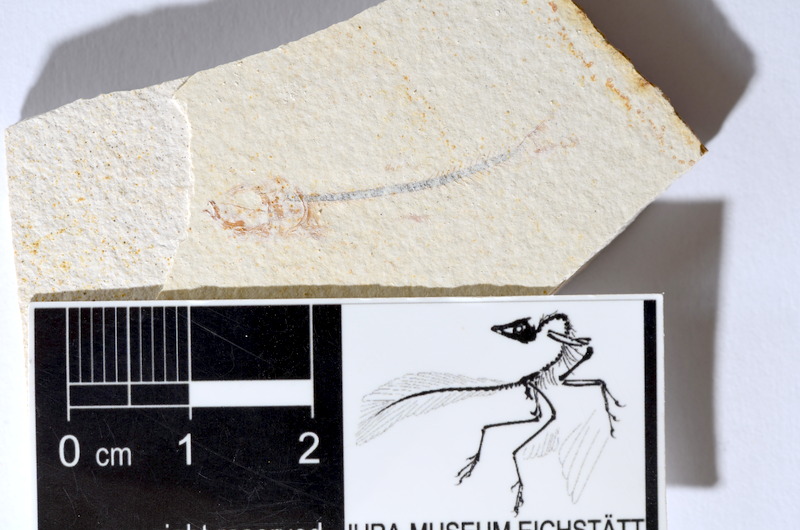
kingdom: Animalia
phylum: Chordata
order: Salmoniformes
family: Orthogonikleithridae
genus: Orthogonikleithrus
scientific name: Orthogonikleithrus hoelli
